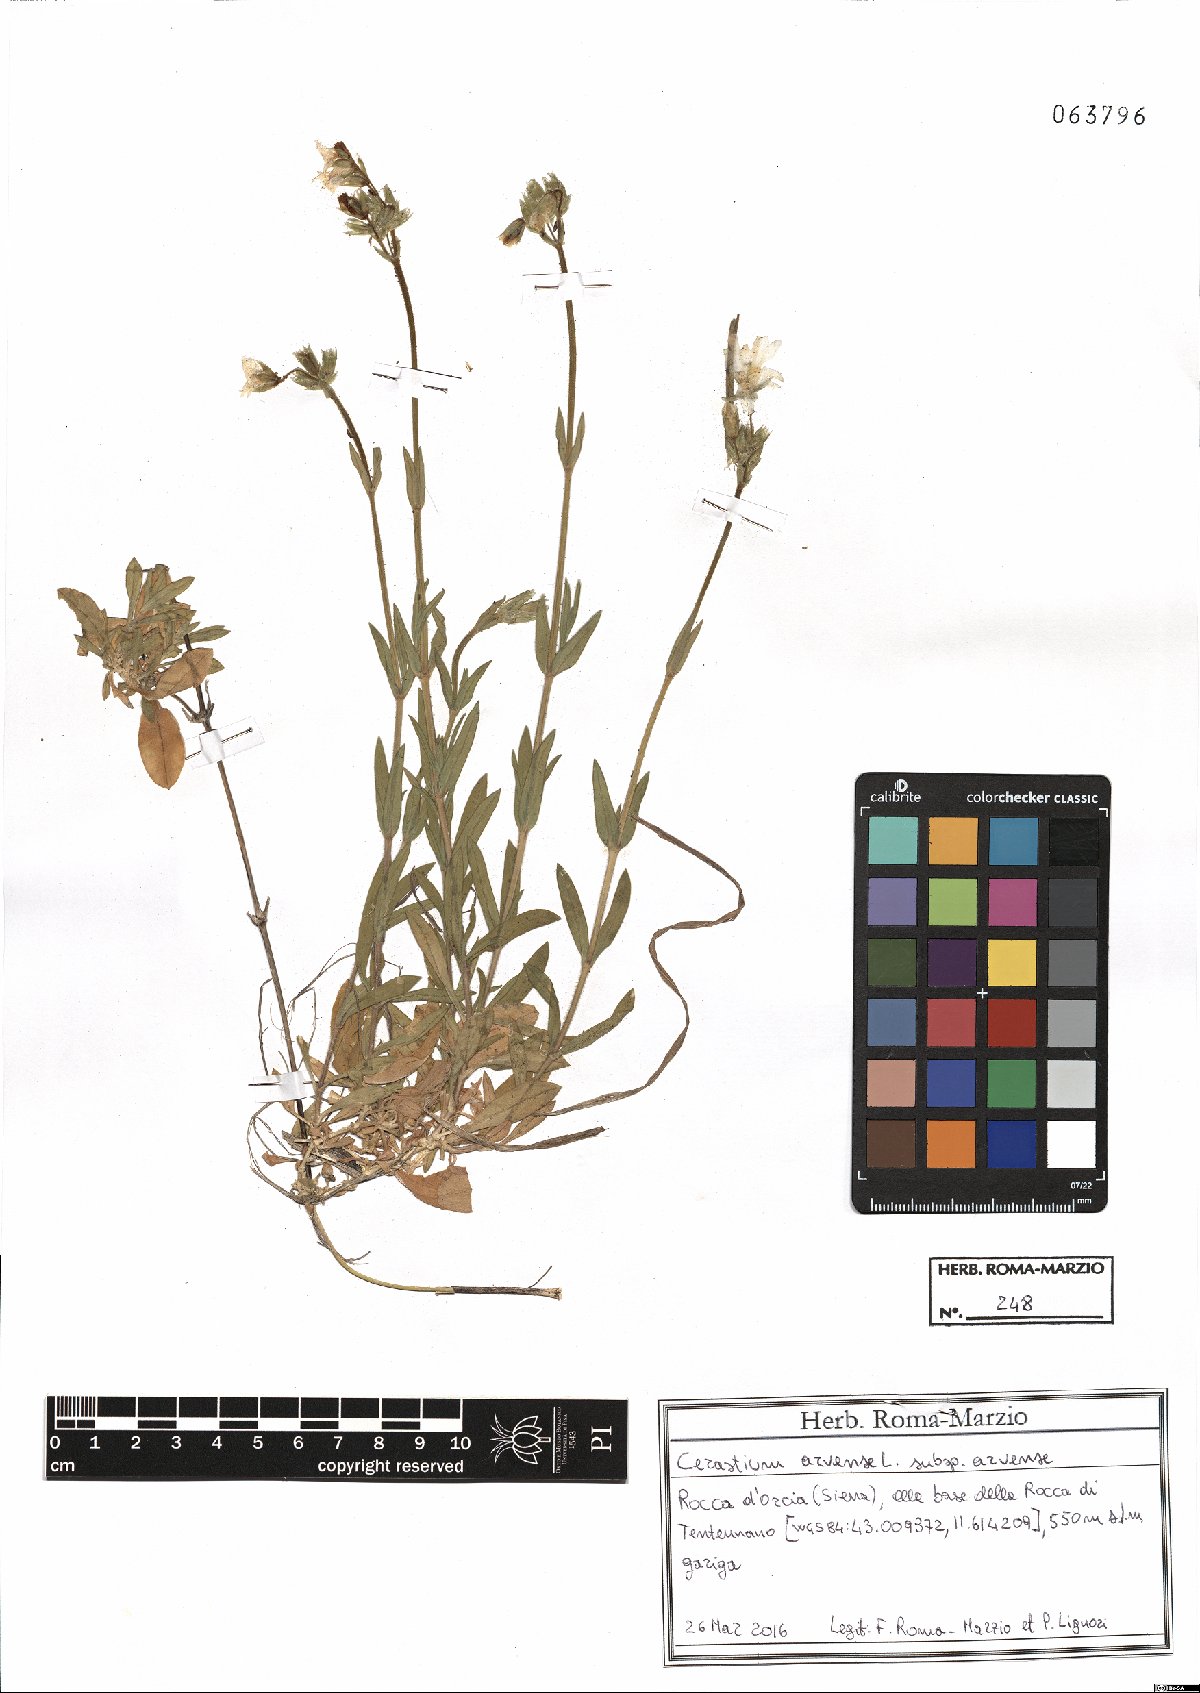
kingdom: Plantae
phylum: Tracheophyta
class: Magnoliopsida
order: Caryophyllales
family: Caryophyllaceae
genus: Cerastium
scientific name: Cerastium arvense
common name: Field mouse-ear
